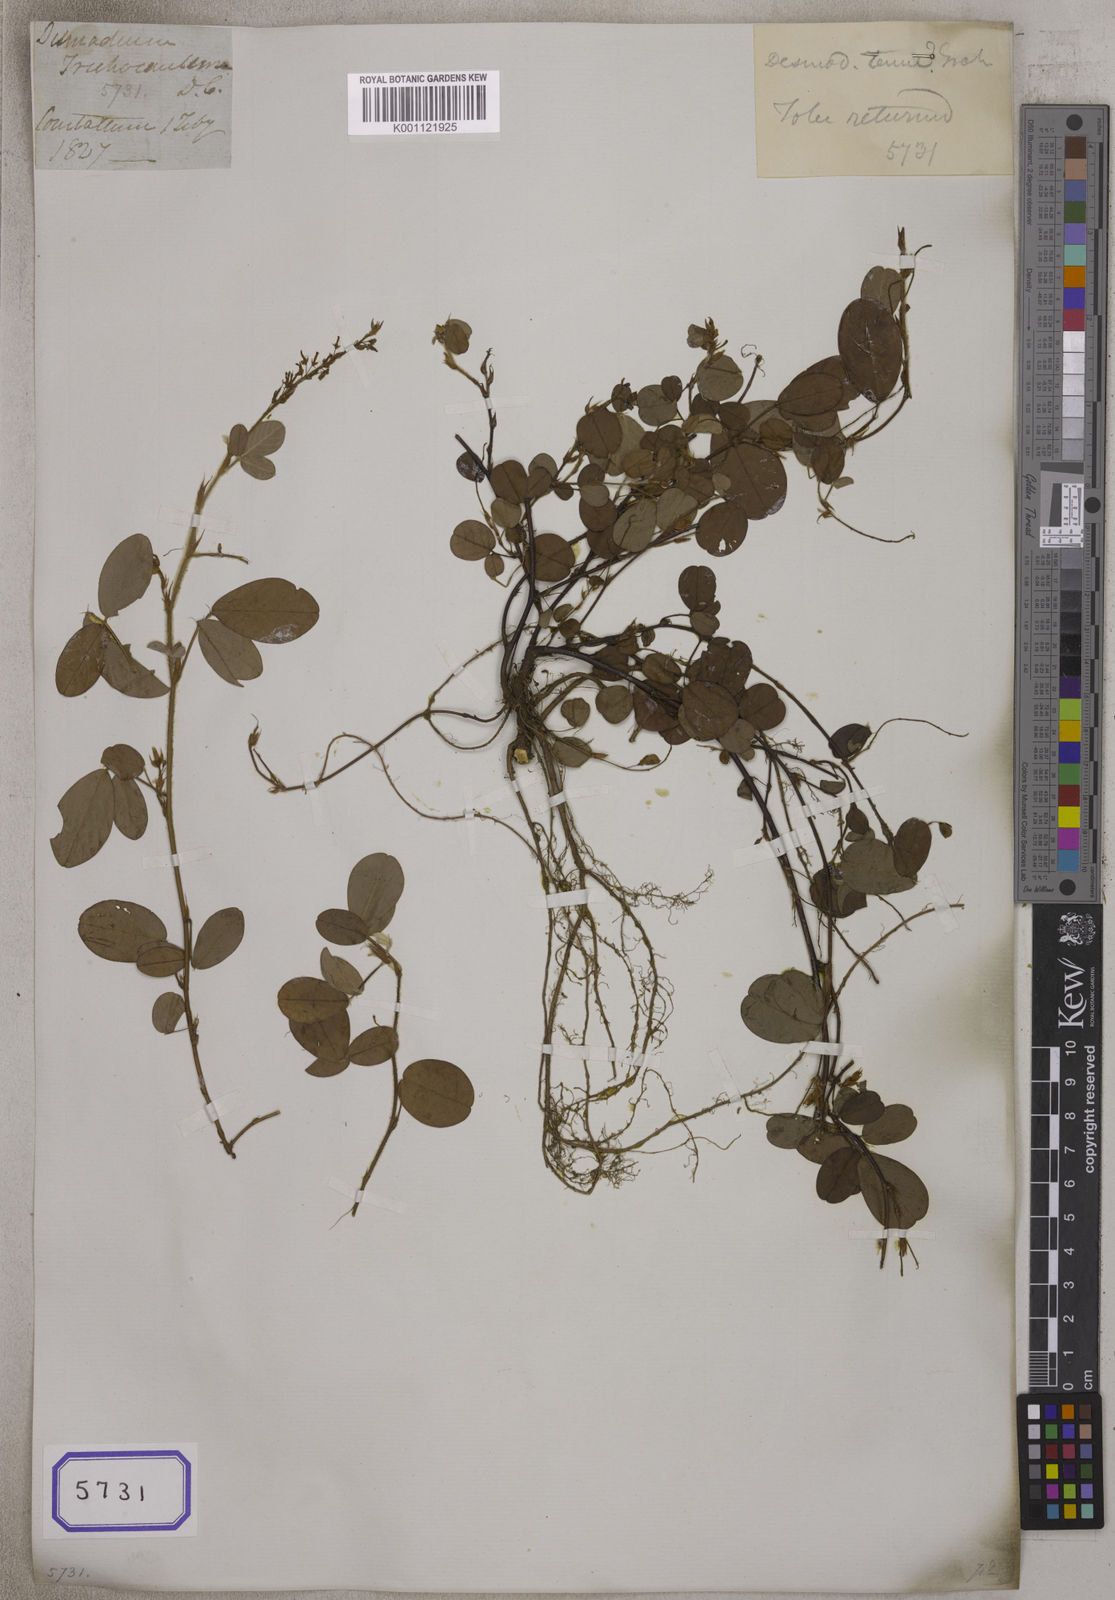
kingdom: Plantae
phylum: Tracheophyta
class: Magnoliopsida
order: Fabales
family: Fabaceae
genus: Desmodium
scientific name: Desmodium
